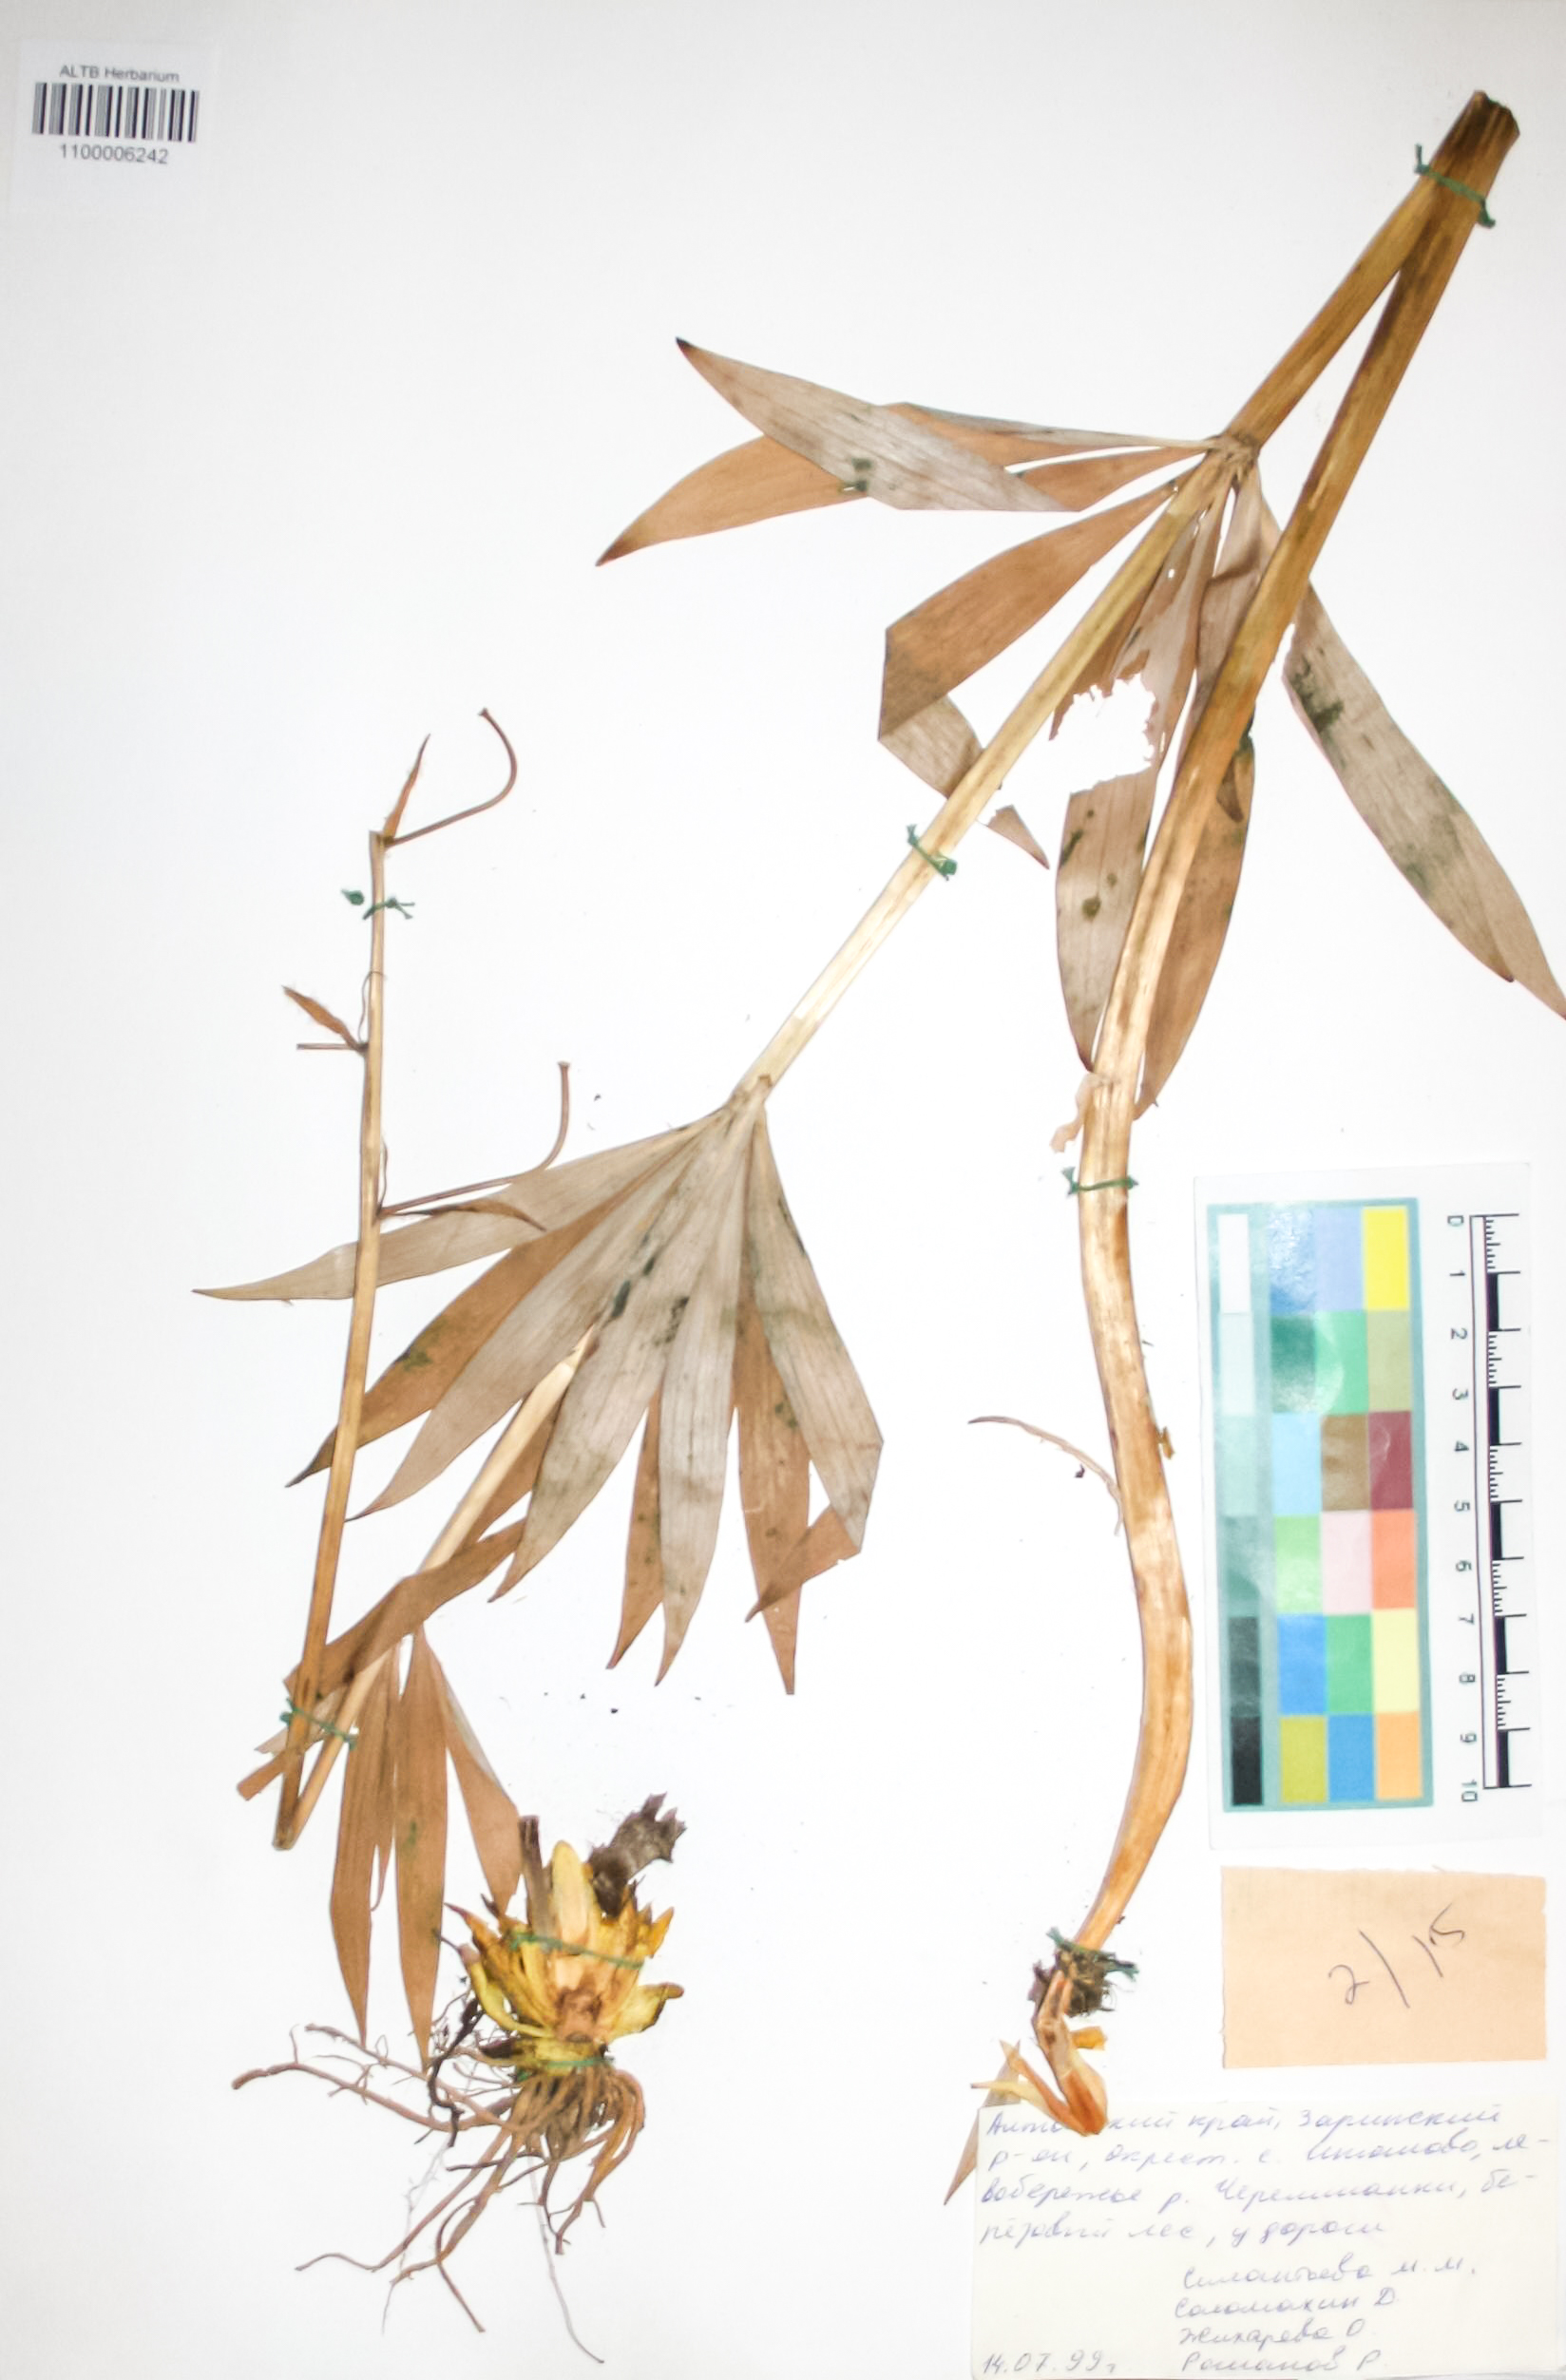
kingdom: Plantae
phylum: Tracheophyta
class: Liliopsida
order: Liliales
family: Liliaceae
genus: Lilium
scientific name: Lilium martagon
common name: Martagon lily
